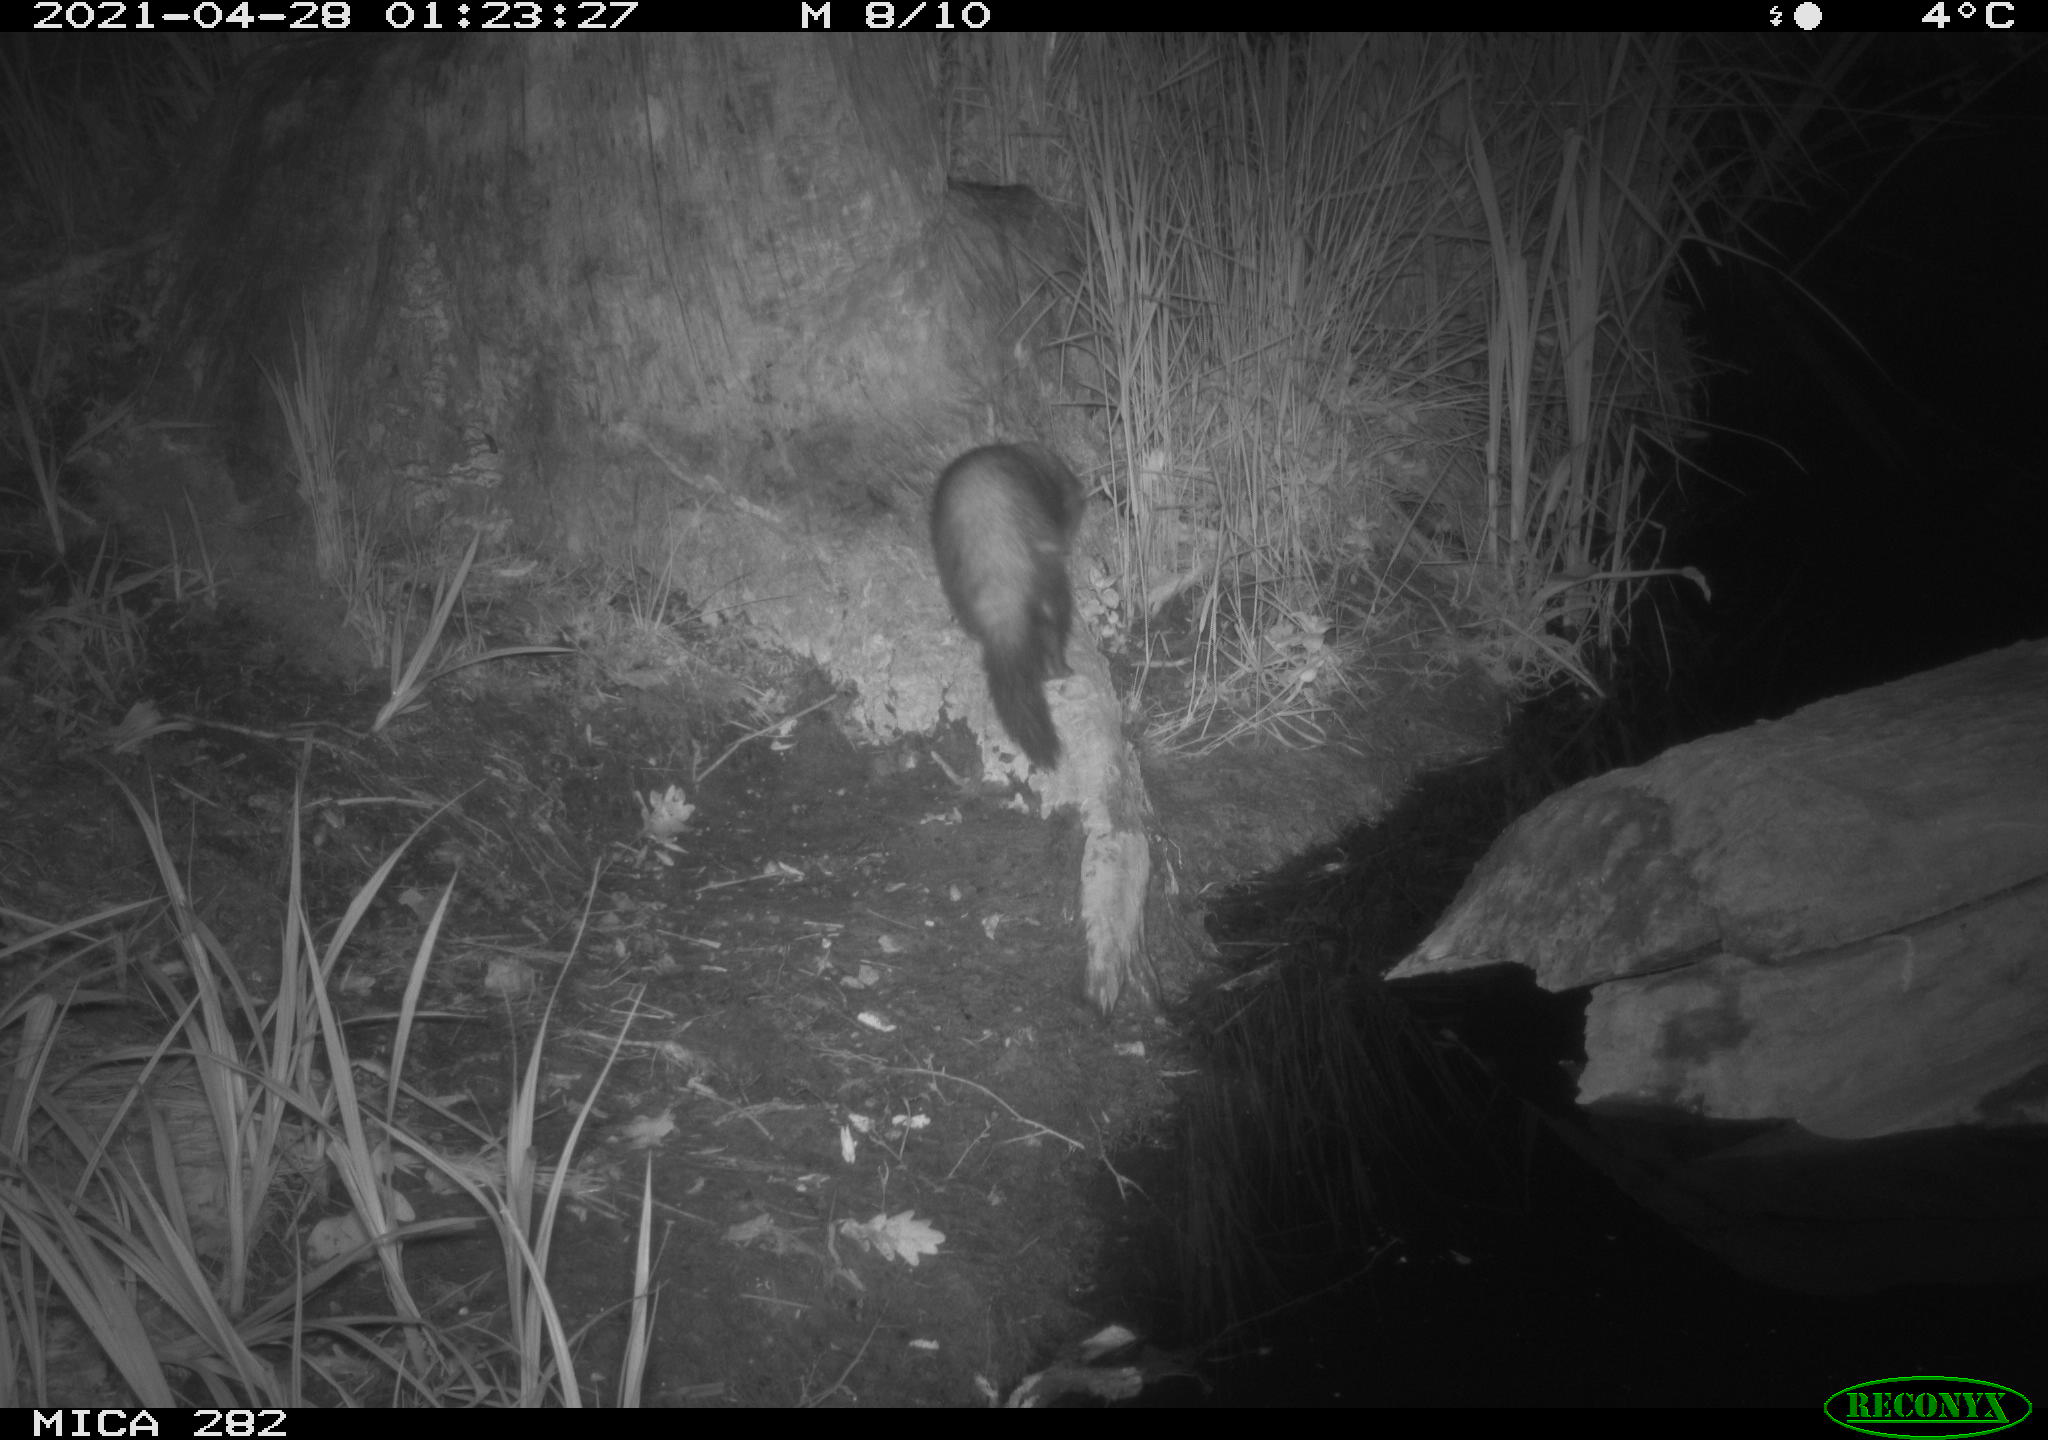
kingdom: Animalia
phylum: Chordata
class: Mammalia
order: Carnivora
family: Mustelidae
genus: Mustela
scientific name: Mustela putorius
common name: European polecat
